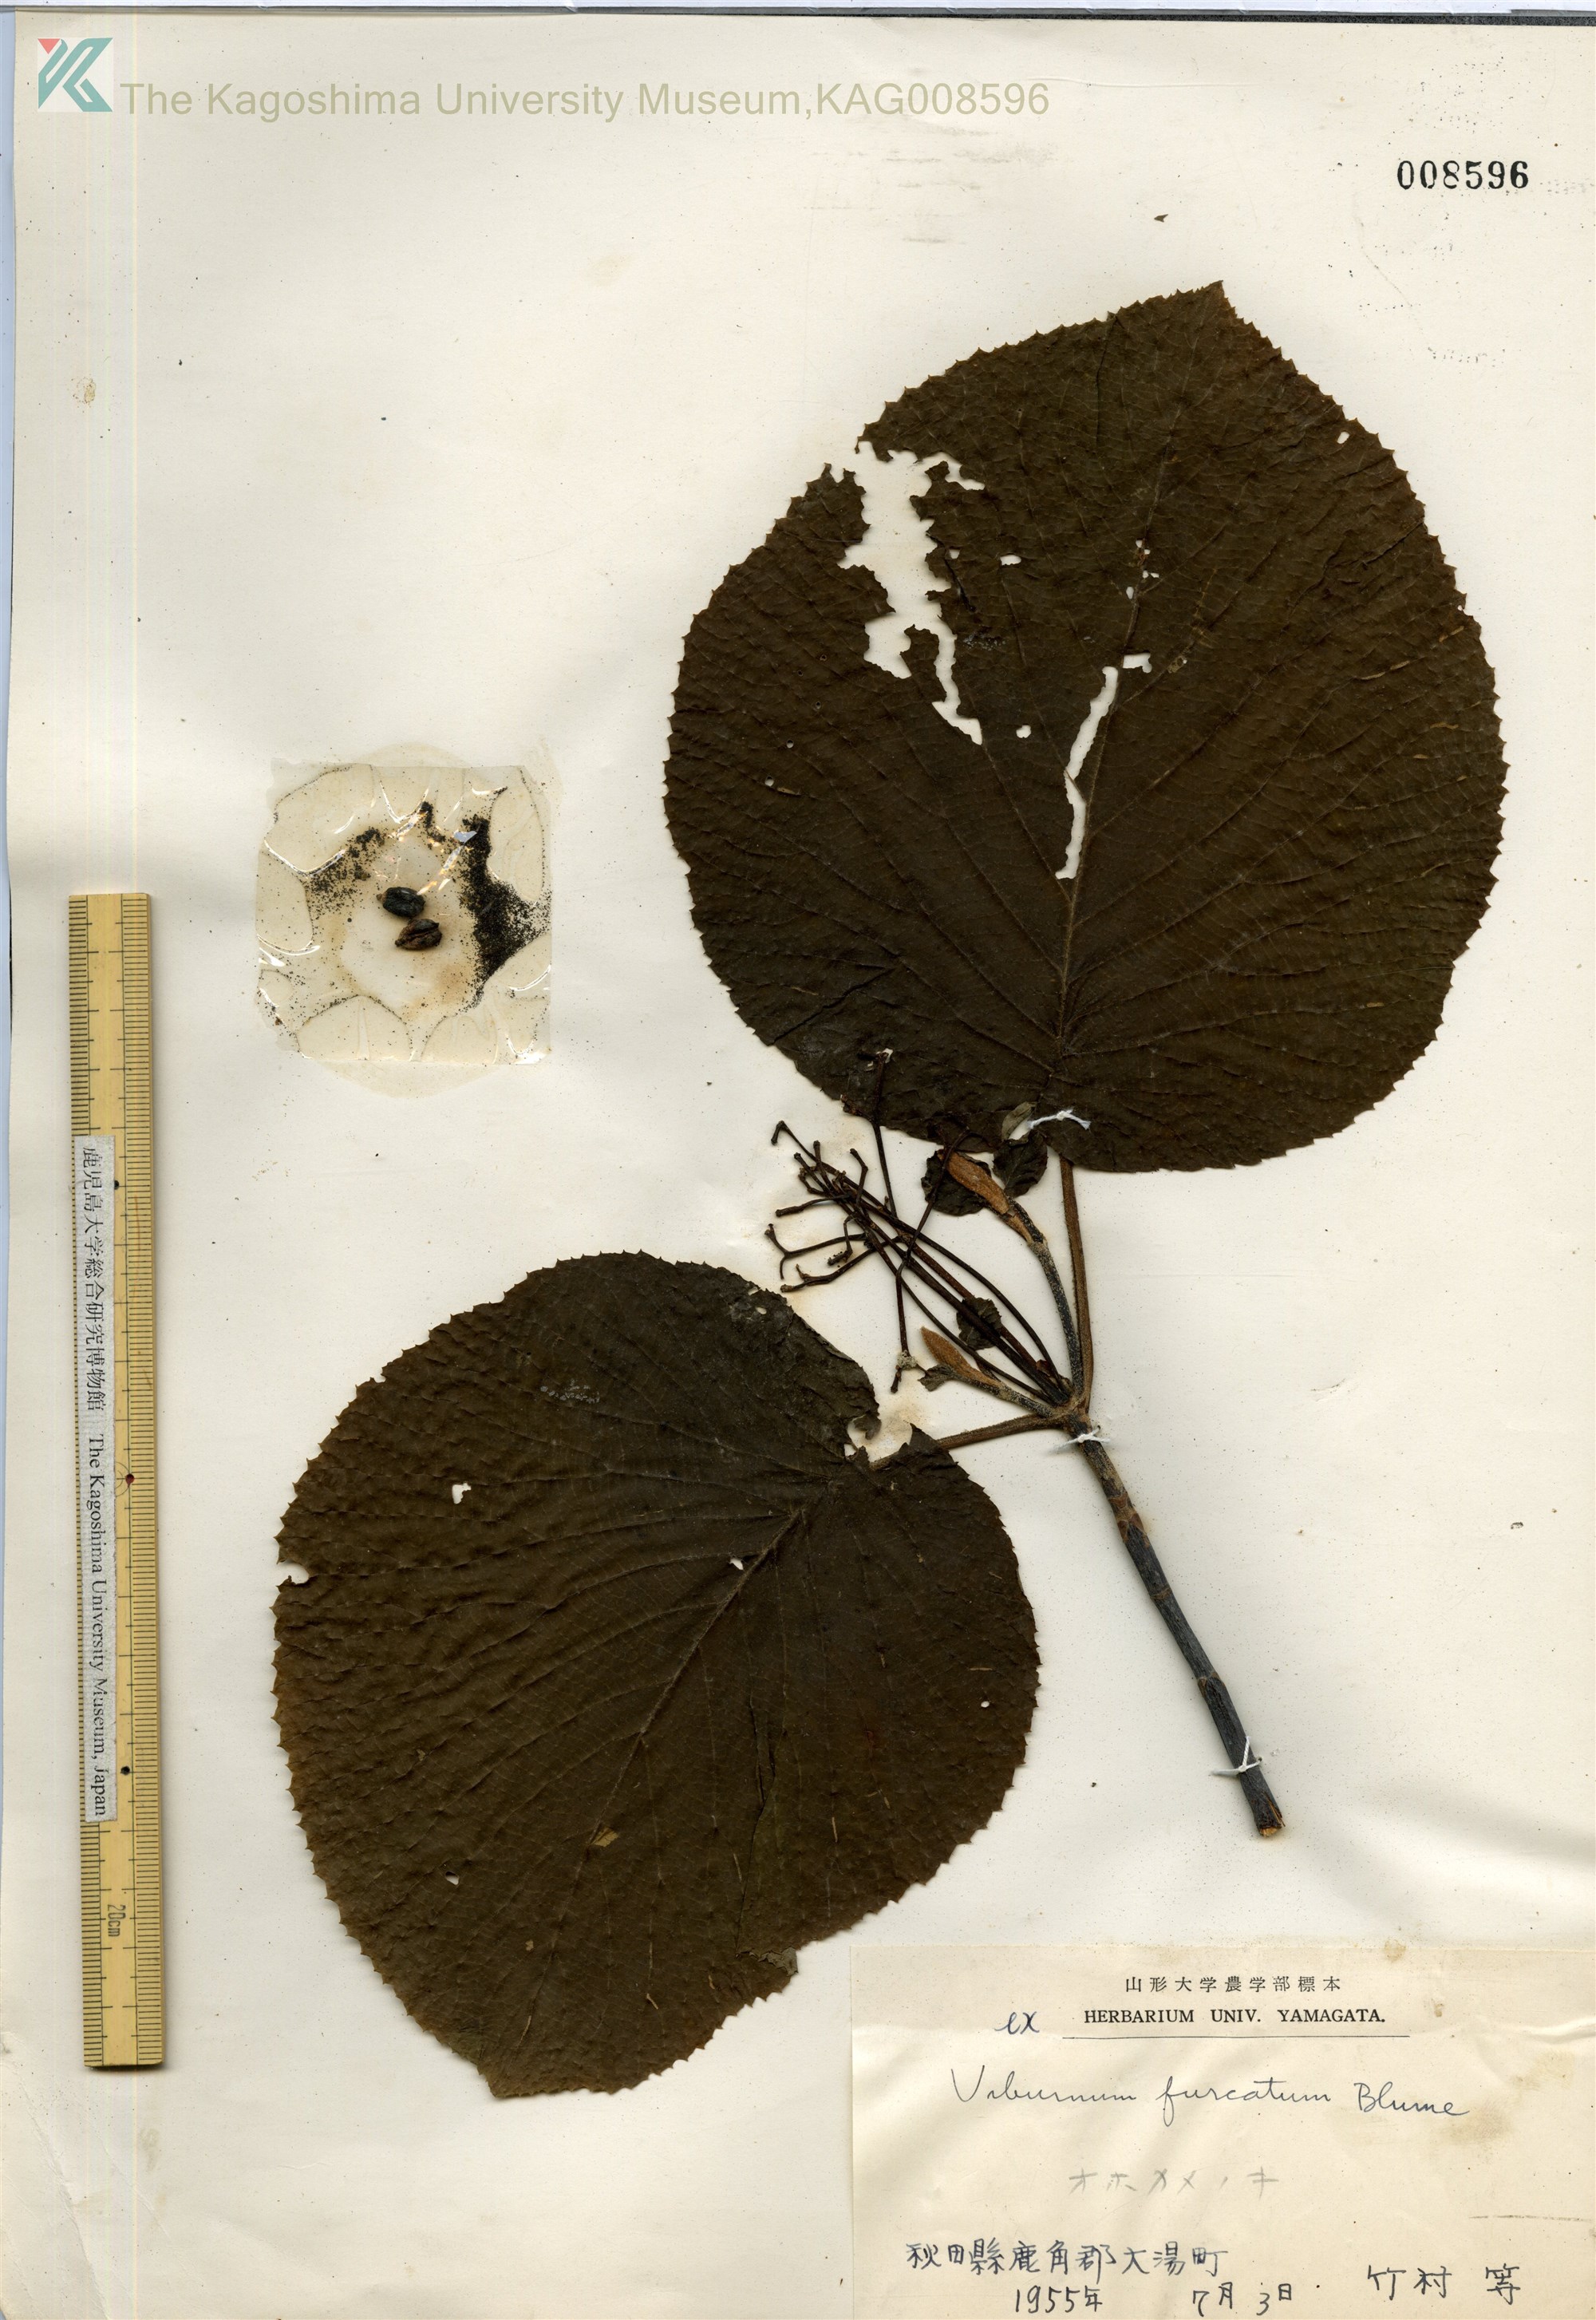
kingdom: Plantae
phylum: Tracheophyta
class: Magnoliopsida
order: Dipsacales
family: Viburnaceae
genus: Viburnum
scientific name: Viburnum furcatum
